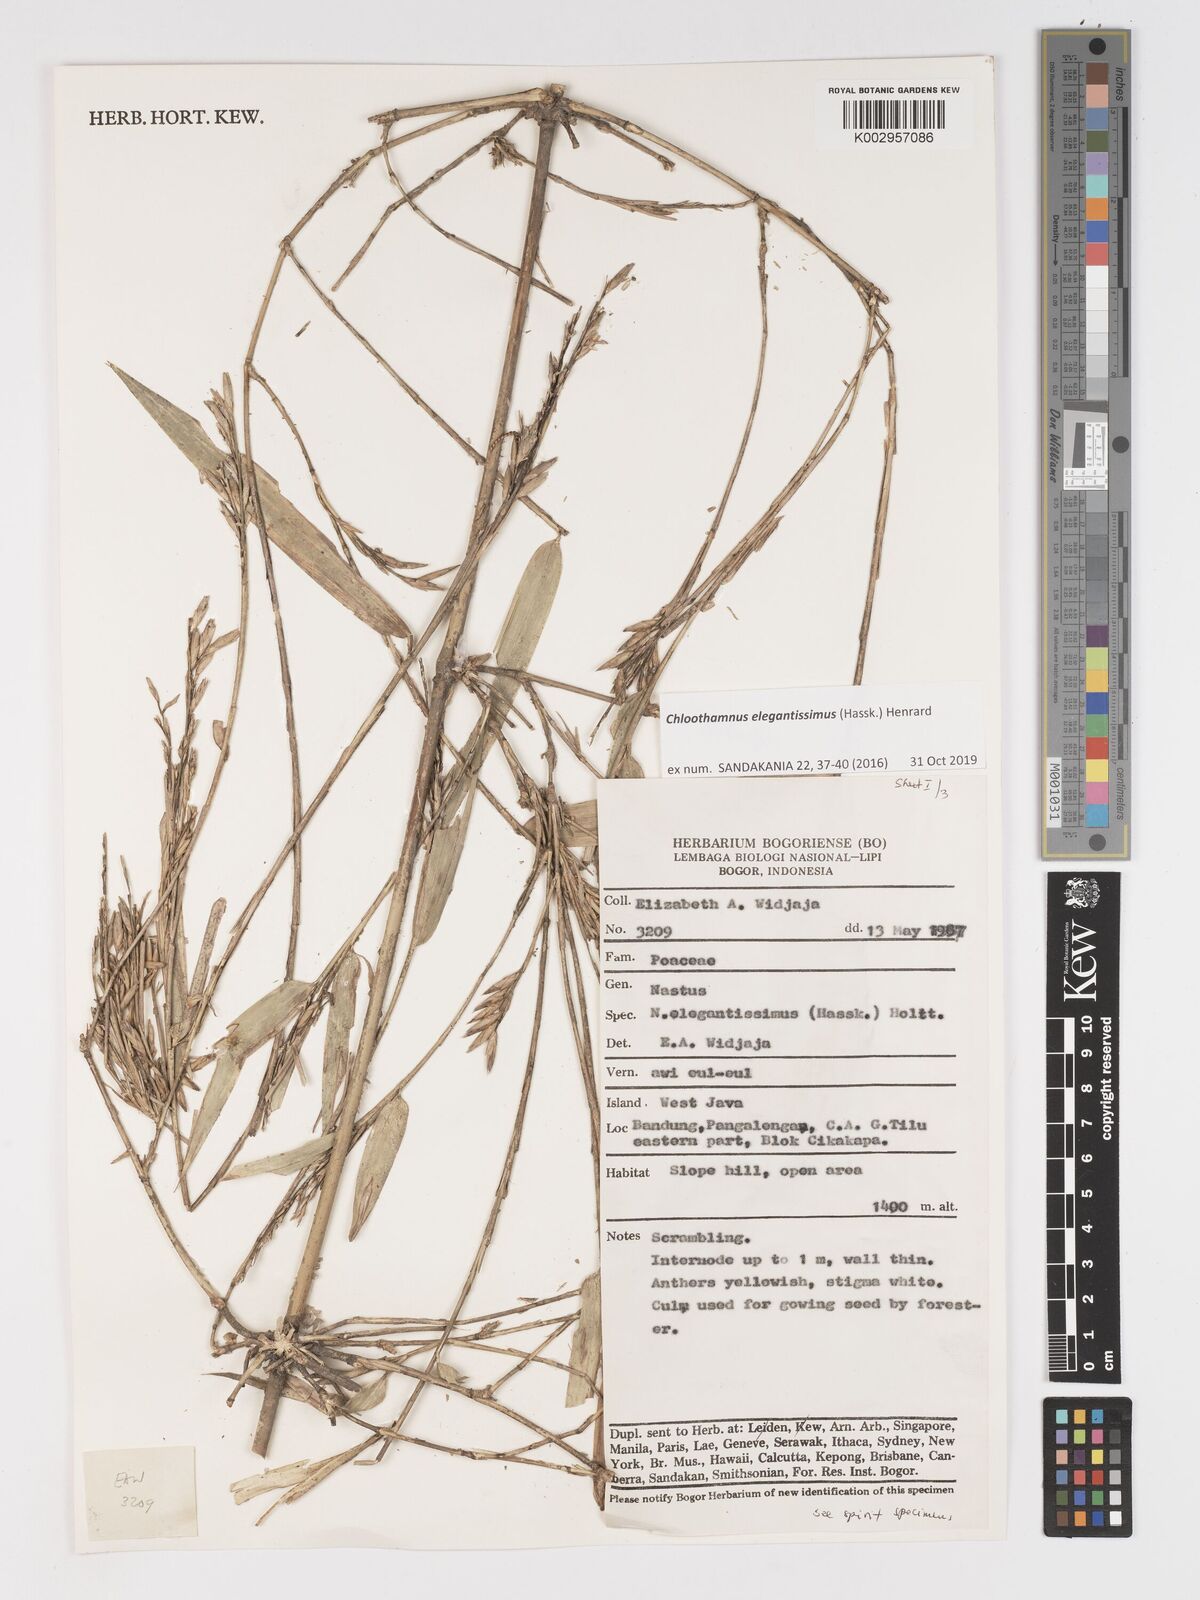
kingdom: Plantae
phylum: Tracheophyta
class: Liliopsida
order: Poales
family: Poaceae
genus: Chloothamnus
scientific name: Chloothamnus elegantissimus
